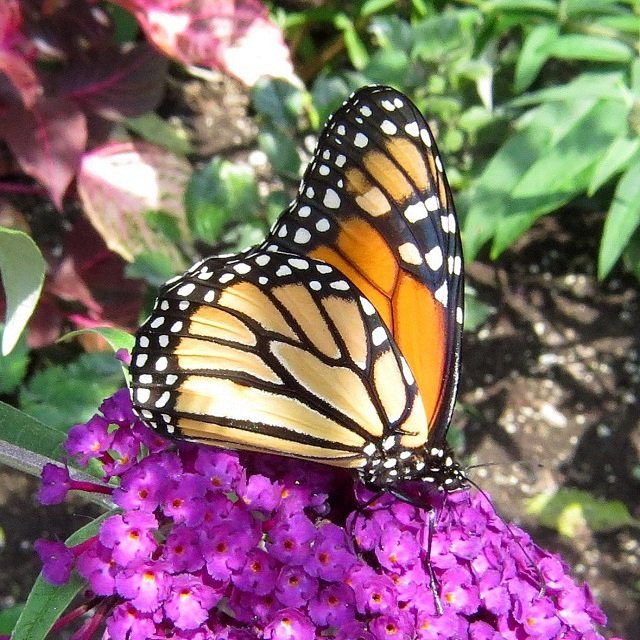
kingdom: Animalia
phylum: Arthropoda
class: Insecta
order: Lepidoptera
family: Nymphalidae
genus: Danaus
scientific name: Danaus plexippus
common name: Monarch
